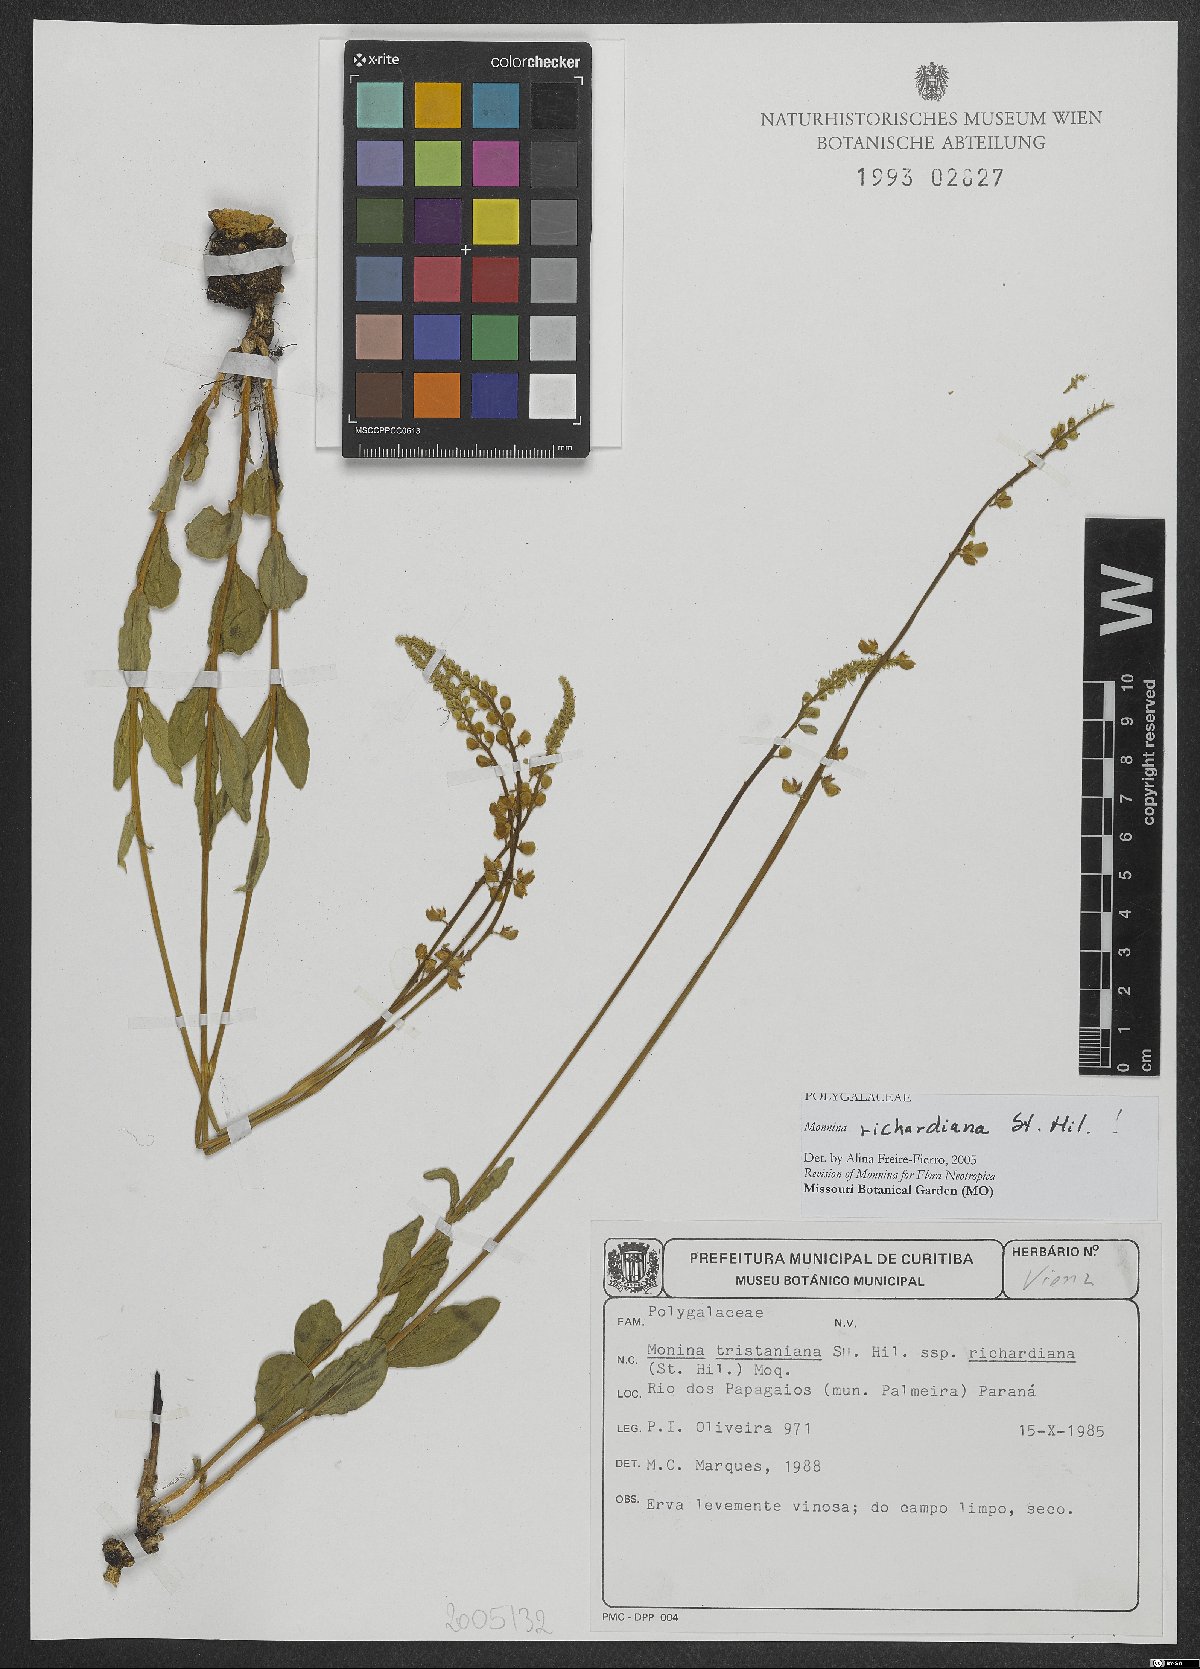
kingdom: Plantae
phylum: Tracheophyta
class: Magnoliopsida
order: Fabales
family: Polygalaceae
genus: Monnina
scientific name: Monnina richardiana
